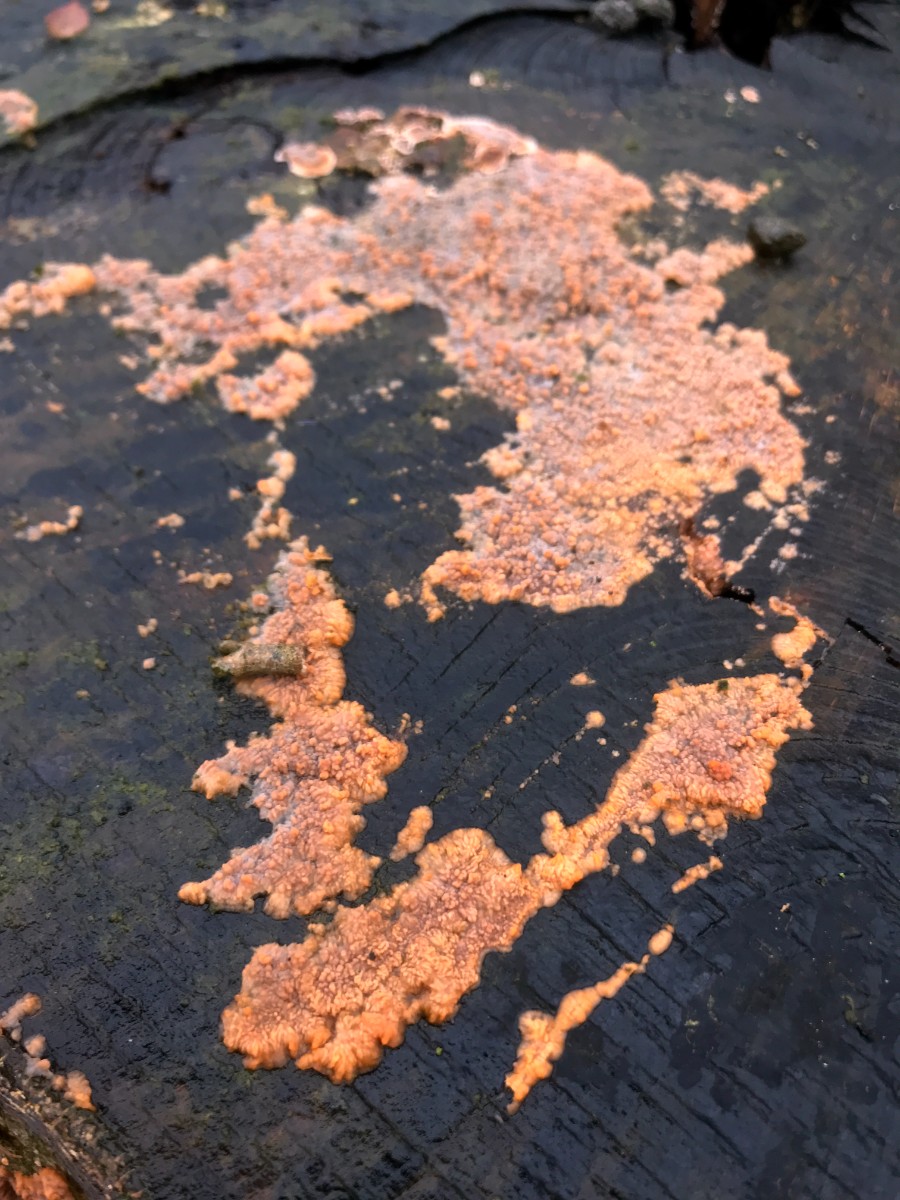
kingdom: Fungi
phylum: Basidiomycota
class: Agaricomycetes
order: Polyporales
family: Meruliaceae
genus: Phlebia
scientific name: Phlebia radiata
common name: stråle-åresvamp
